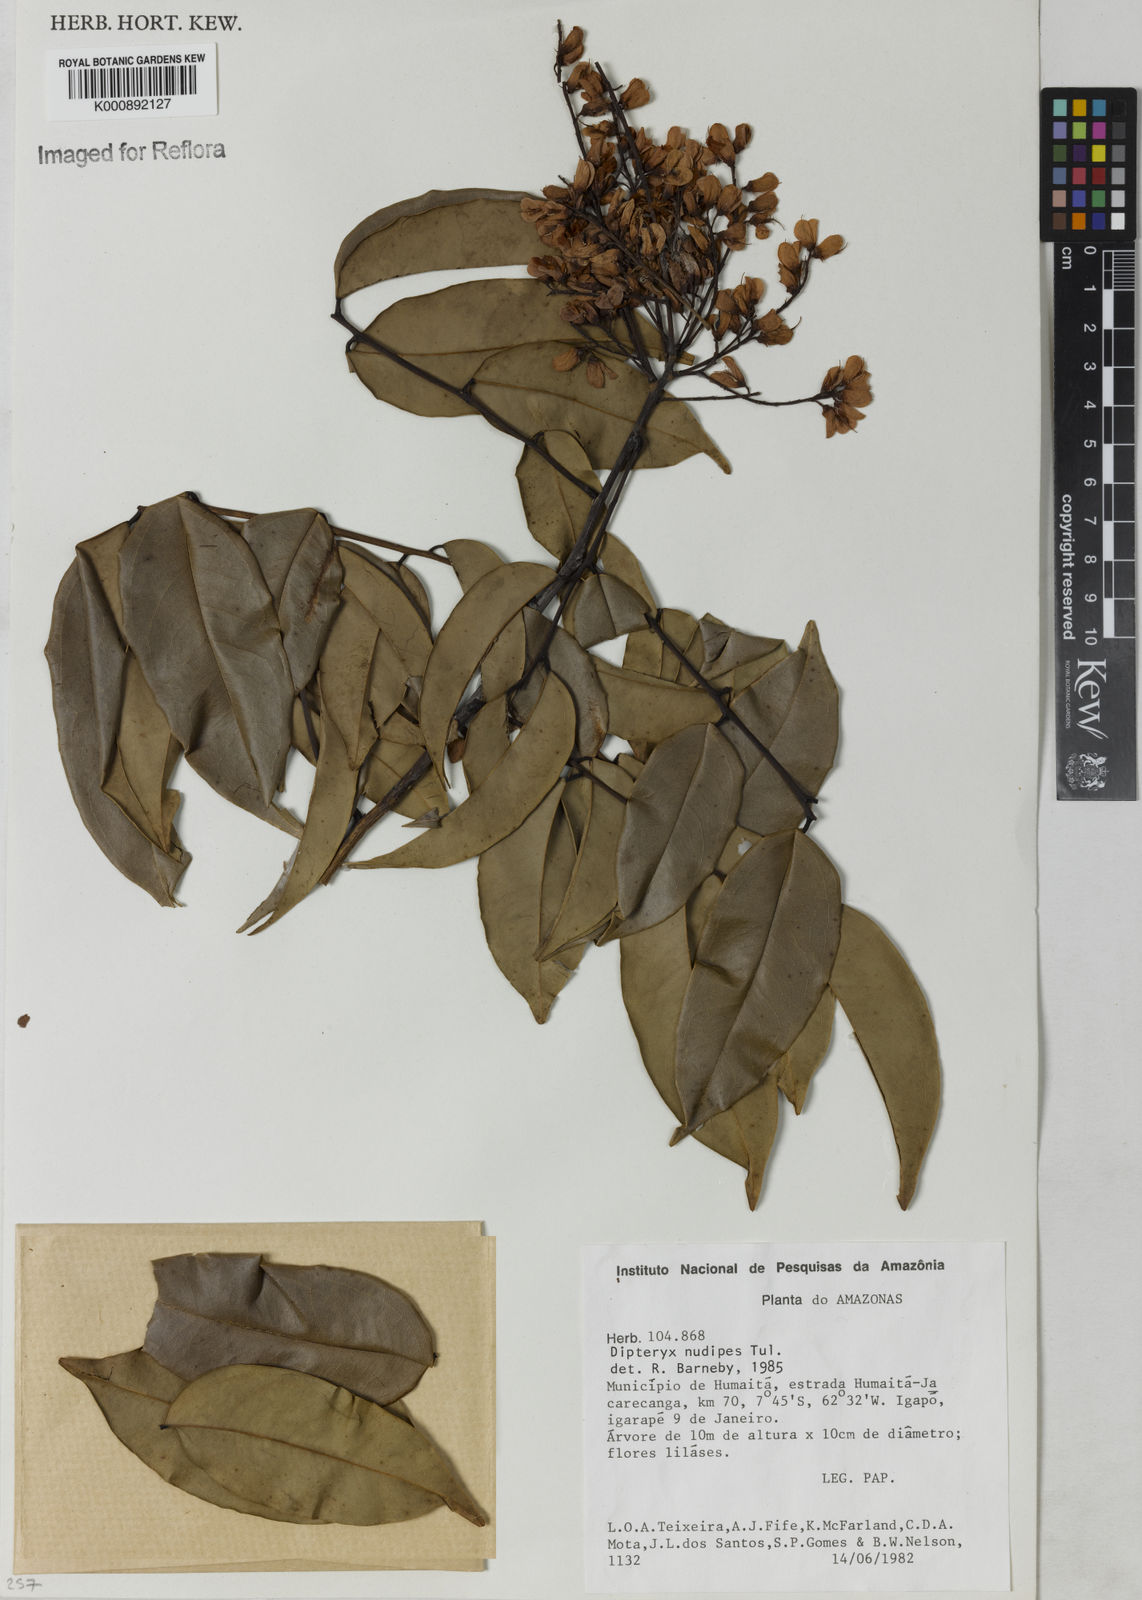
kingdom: Plantae
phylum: Tracheophyta
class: Magnoliopsida
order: Fabales
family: Fabaceae
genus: Taralea
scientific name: Taralea nudipes
